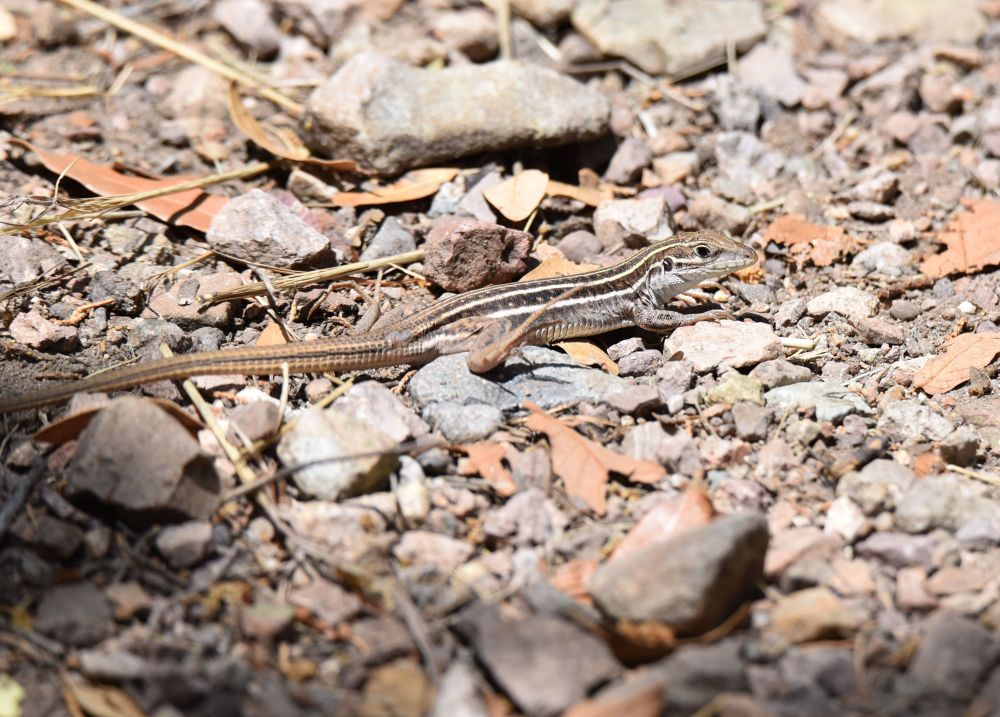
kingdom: Animalia
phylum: Chordata
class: Squamata
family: Teiidae
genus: Aspidoscelis
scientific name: Aspidoscelis sonorae
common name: Sonoran spotted whiptail
